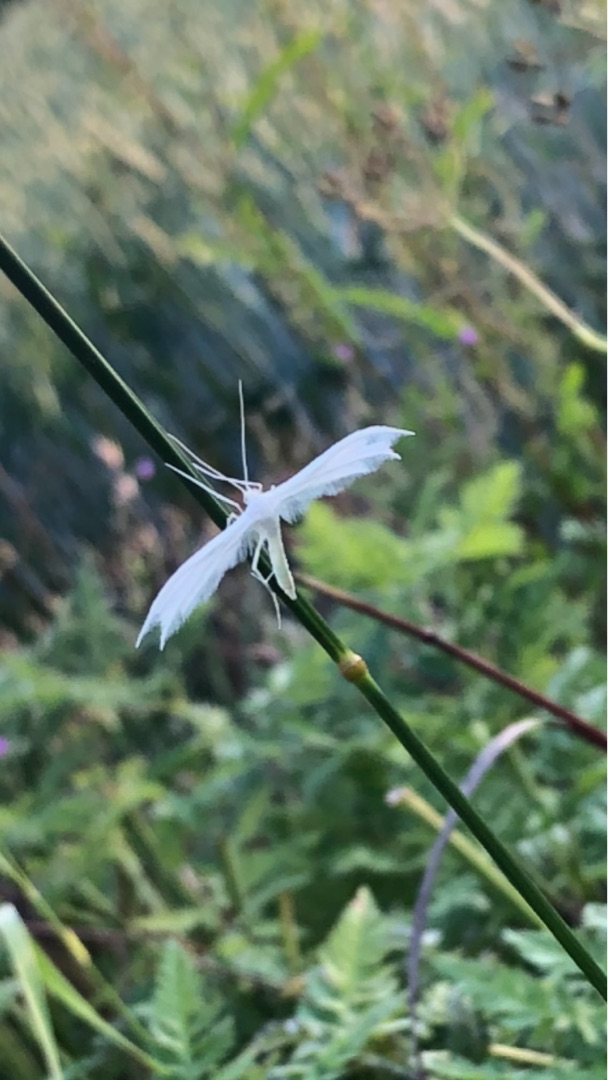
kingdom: Animalia
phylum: Arthropoda
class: Insecta
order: Lepidoptera
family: Pterophoridae
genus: Pterophorus
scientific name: Pterophorus pentadactyla
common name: Hvidt fjermøl
